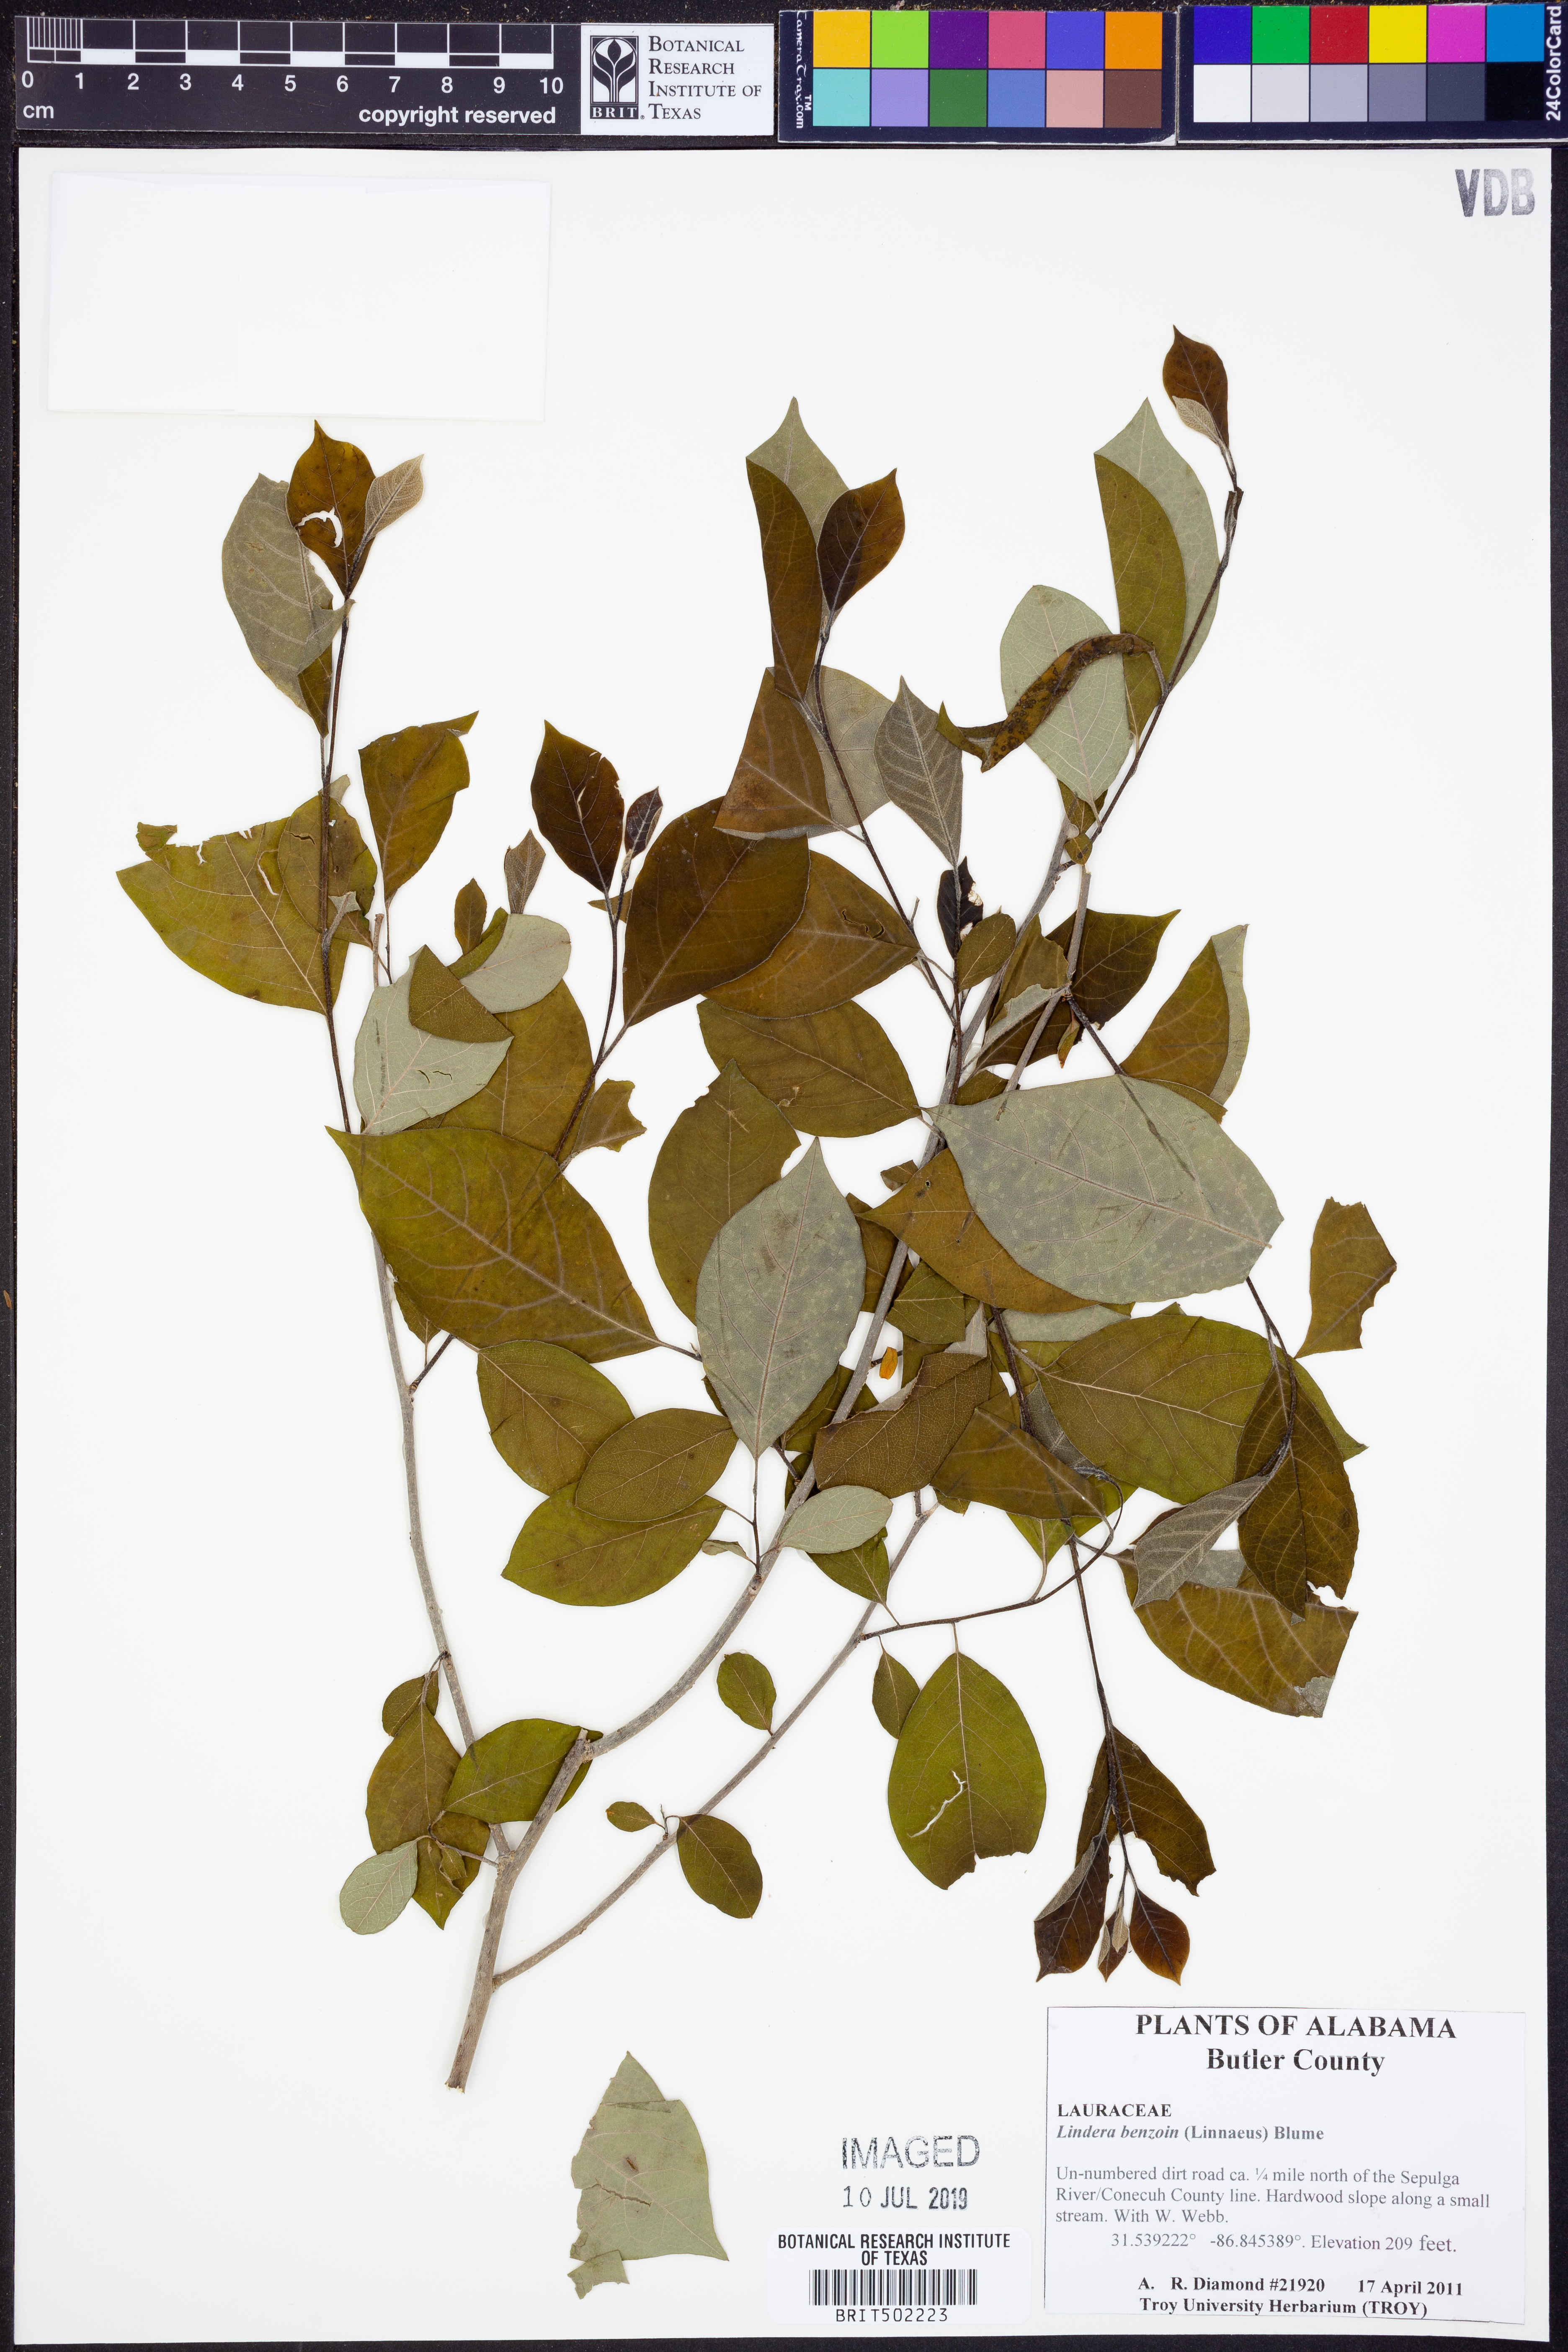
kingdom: Plantae
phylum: Tracheophyta
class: Magnoliopsida
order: Laurales
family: Lauraceae
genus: Lindera
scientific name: Lindera benzoin
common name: Spicebush
